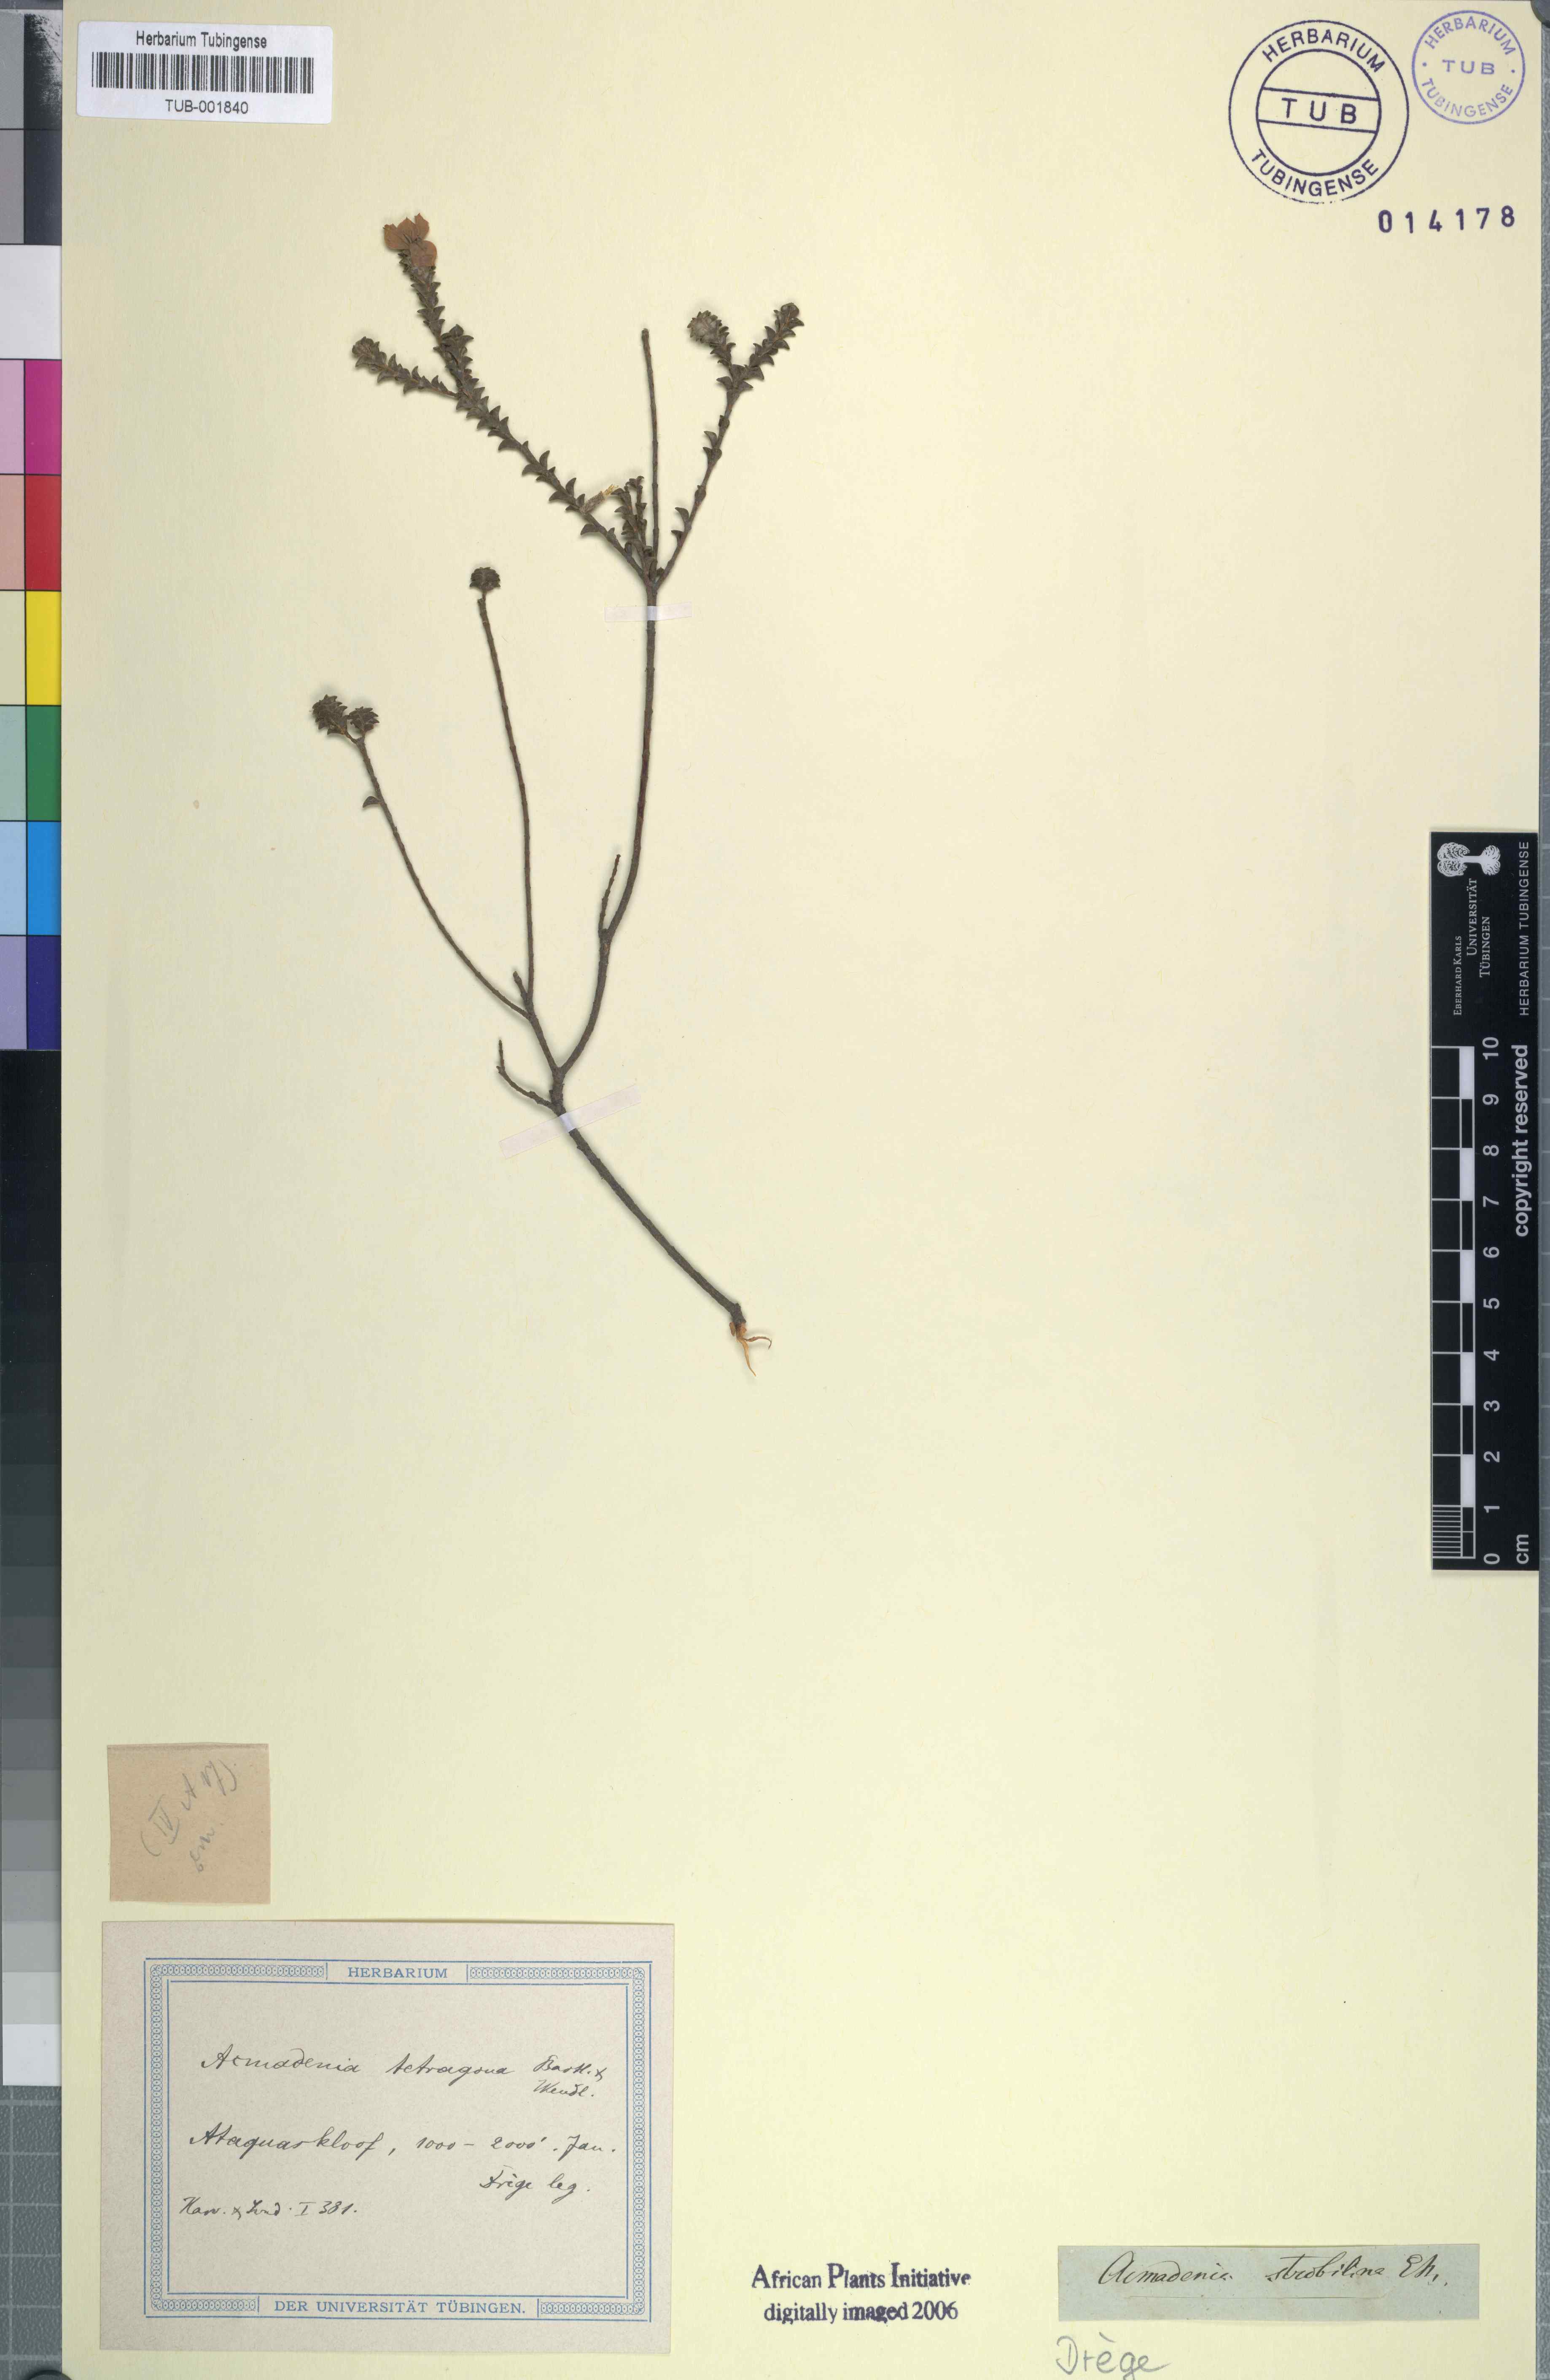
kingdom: Plantae
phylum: Tracheophyta
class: Magnoliopsida
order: Sapindales
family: Rutaceae
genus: Acmadenia
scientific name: Acmadenia tetragona
